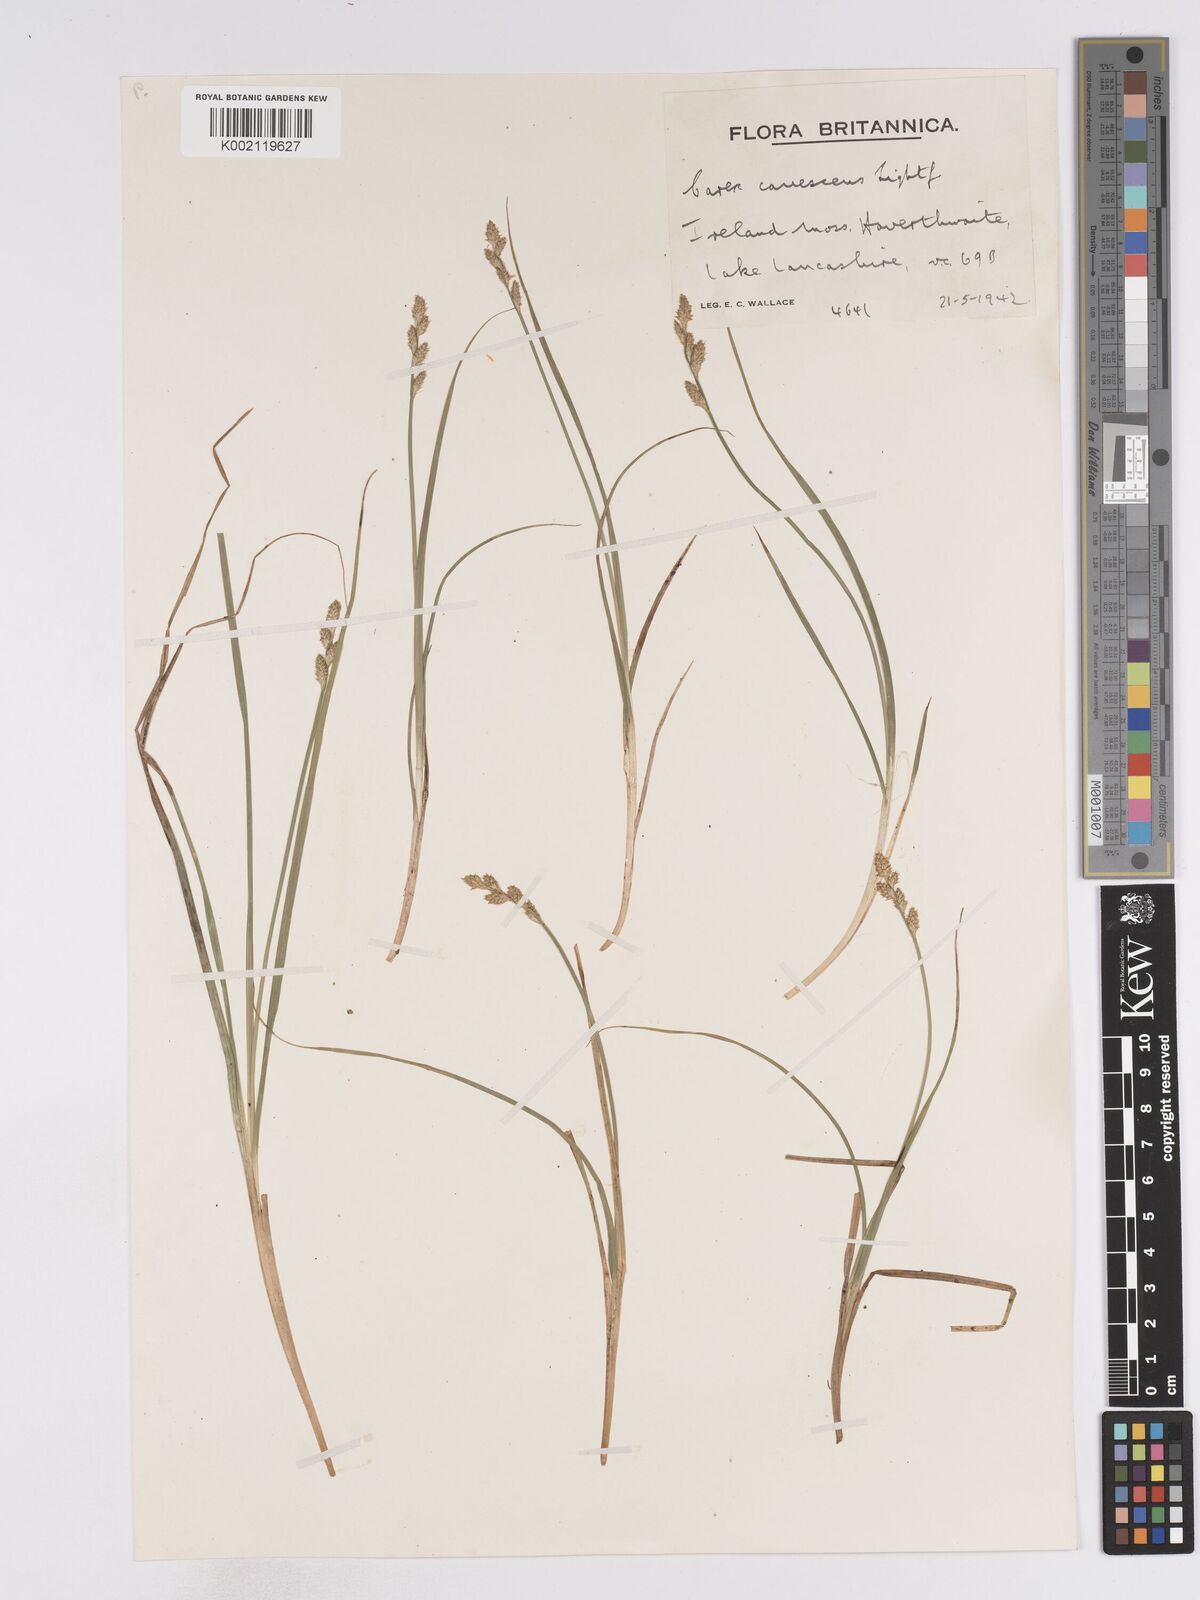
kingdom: Plantae
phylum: Tracheophyta
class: Liliopsida
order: Poales
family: Cyperaceae
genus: Carex
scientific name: Carex curta
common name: White sedge
